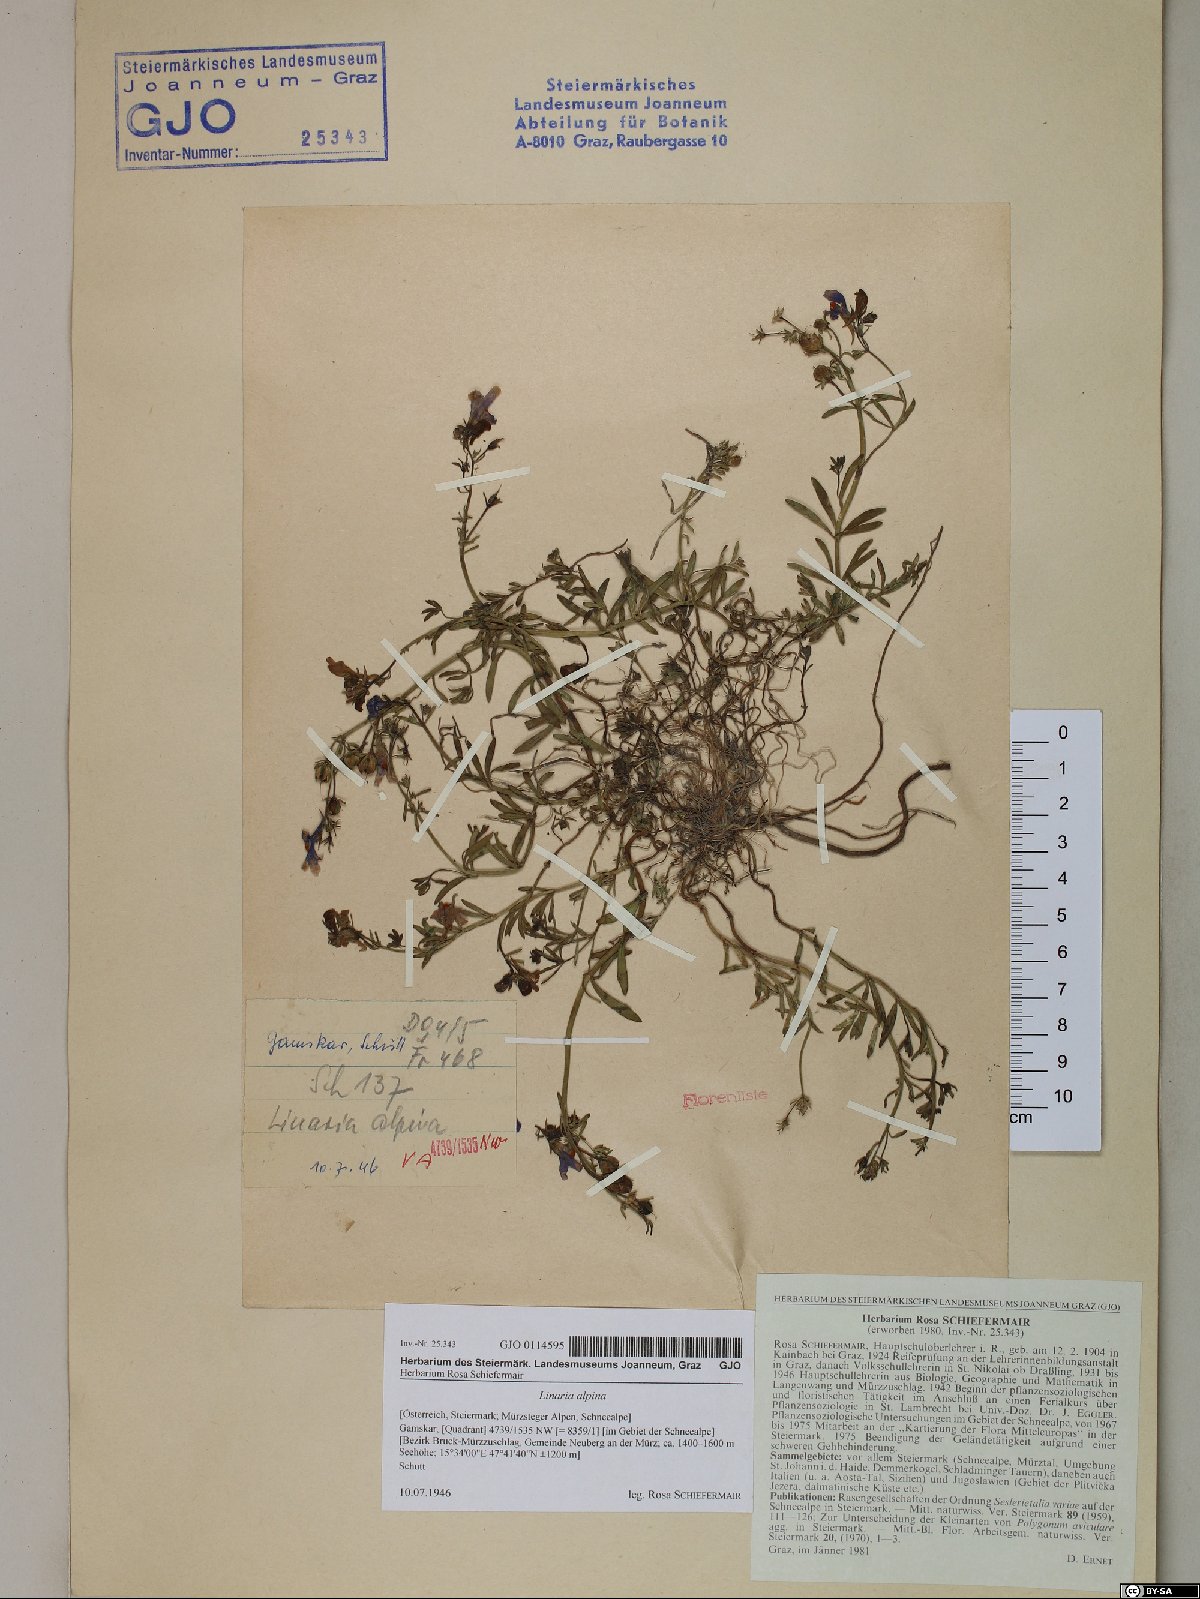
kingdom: Plantae
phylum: Tracheophyta
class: Magnoliopsida
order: Lamiales
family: Plantaginaceae
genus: Linaria
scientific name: Linaria alpina
